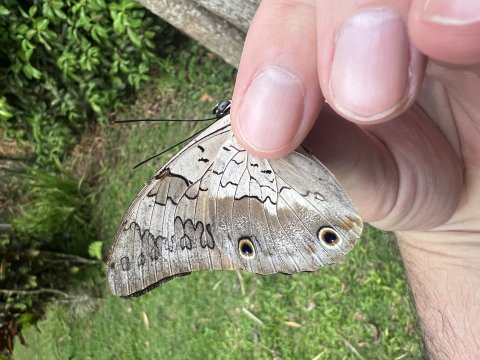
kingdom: Animalia
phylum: Arthropoda
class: Insecta
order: Lepidoptera
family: Nymphalidae
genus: Prepona
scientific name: Prepona laertes
